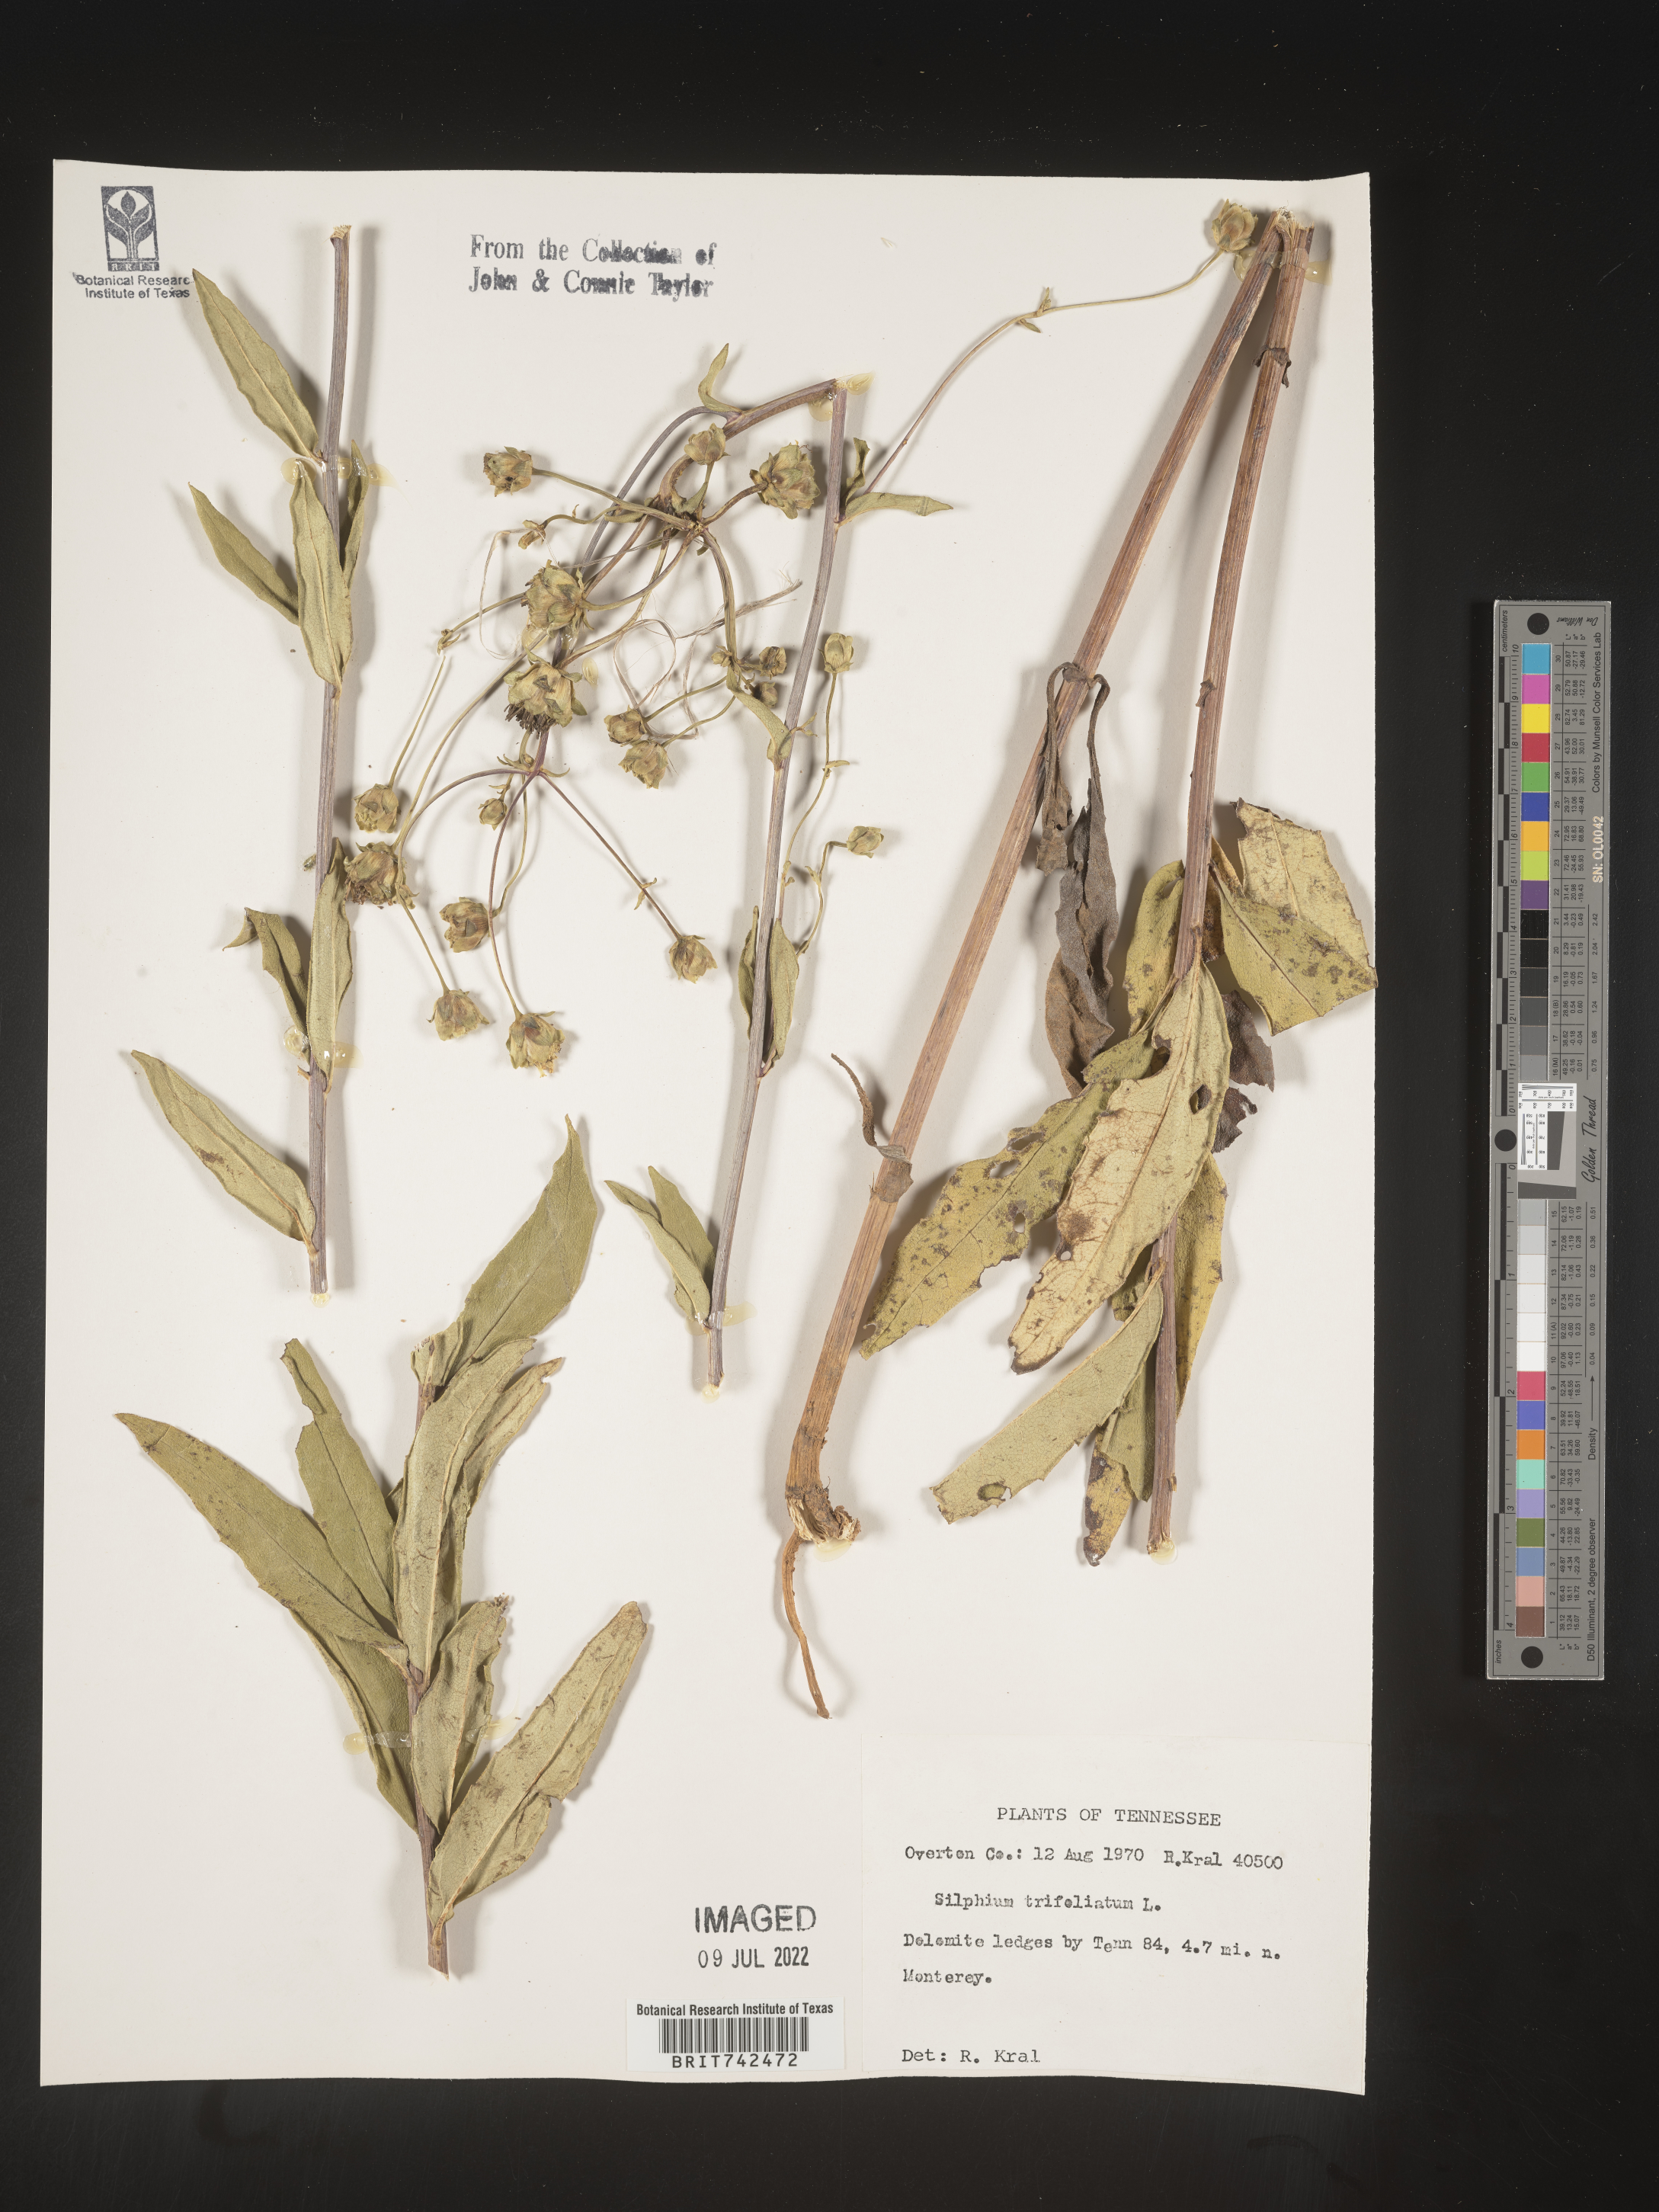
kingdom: Plantae
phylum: Tracheophyta
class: Magnoliopsida
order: Asterales
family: Asteraceae
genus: Silphium
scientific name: Silphium asteriscus
